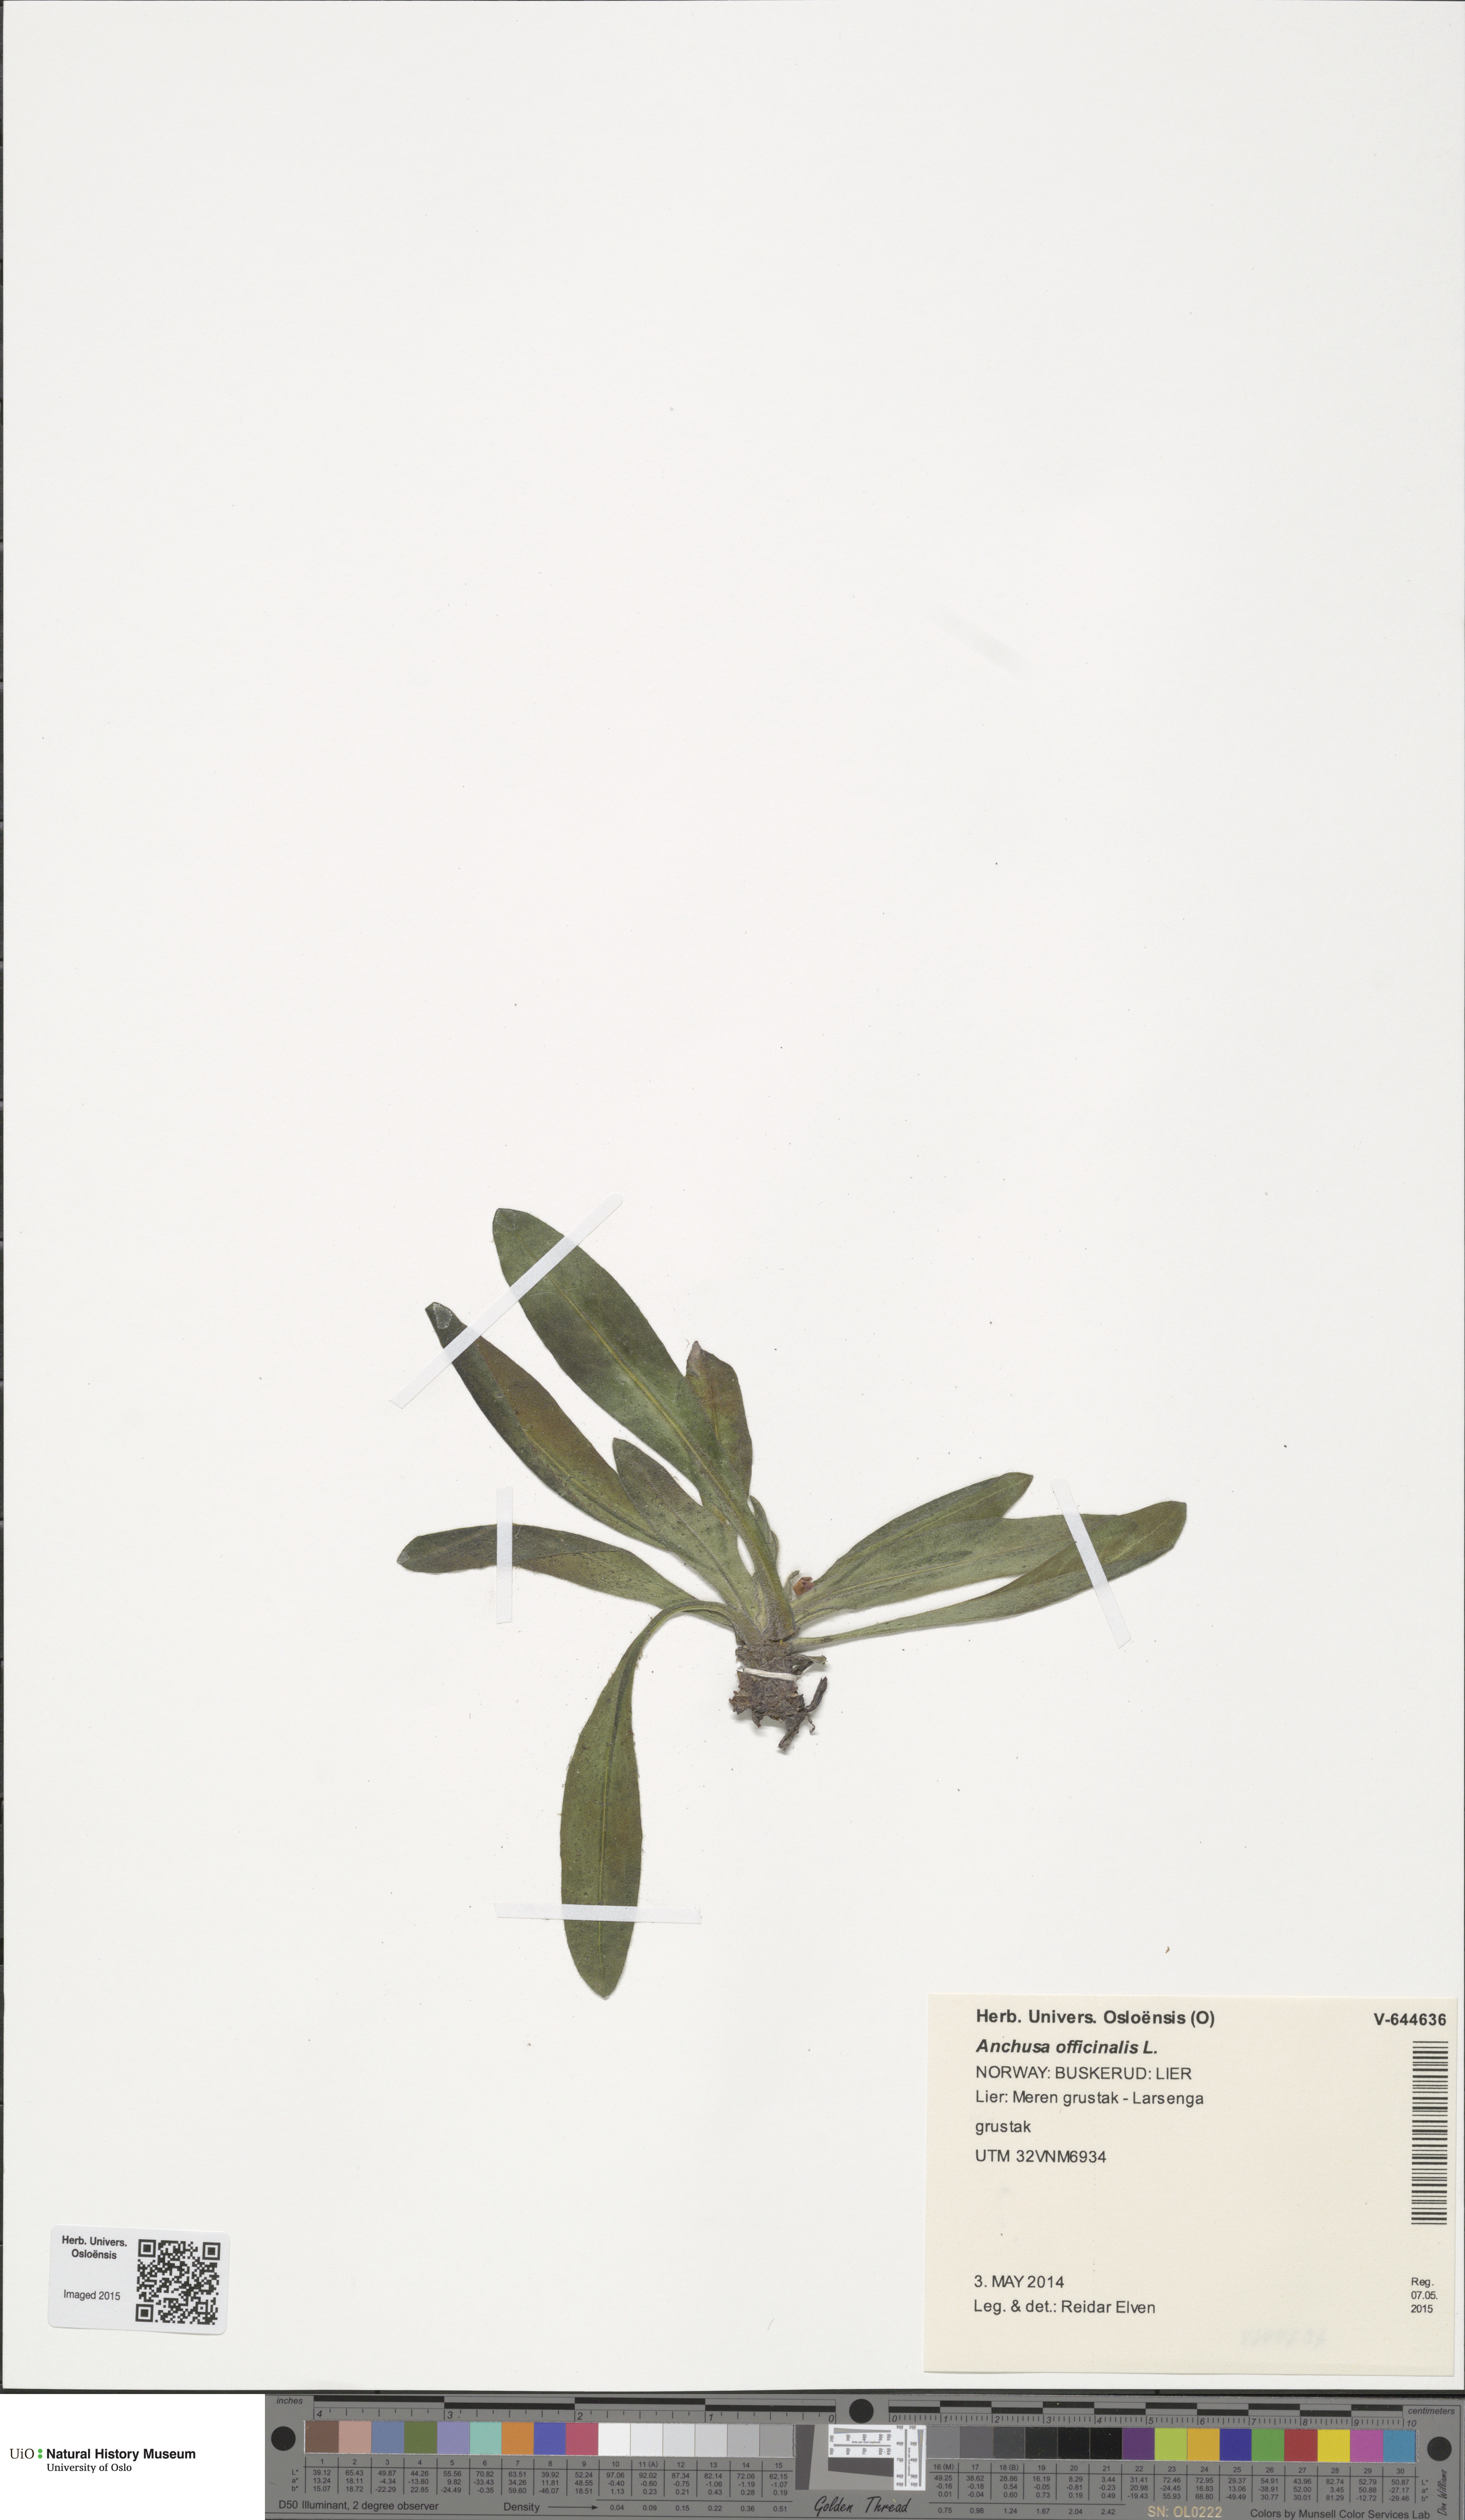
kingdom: Plantae
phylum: Tracheophyta
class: Magnoliopsida
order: Boraginales
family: Boraginaceae
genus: Anchusa
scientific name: Anchusa officinalis
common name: Alkanet
